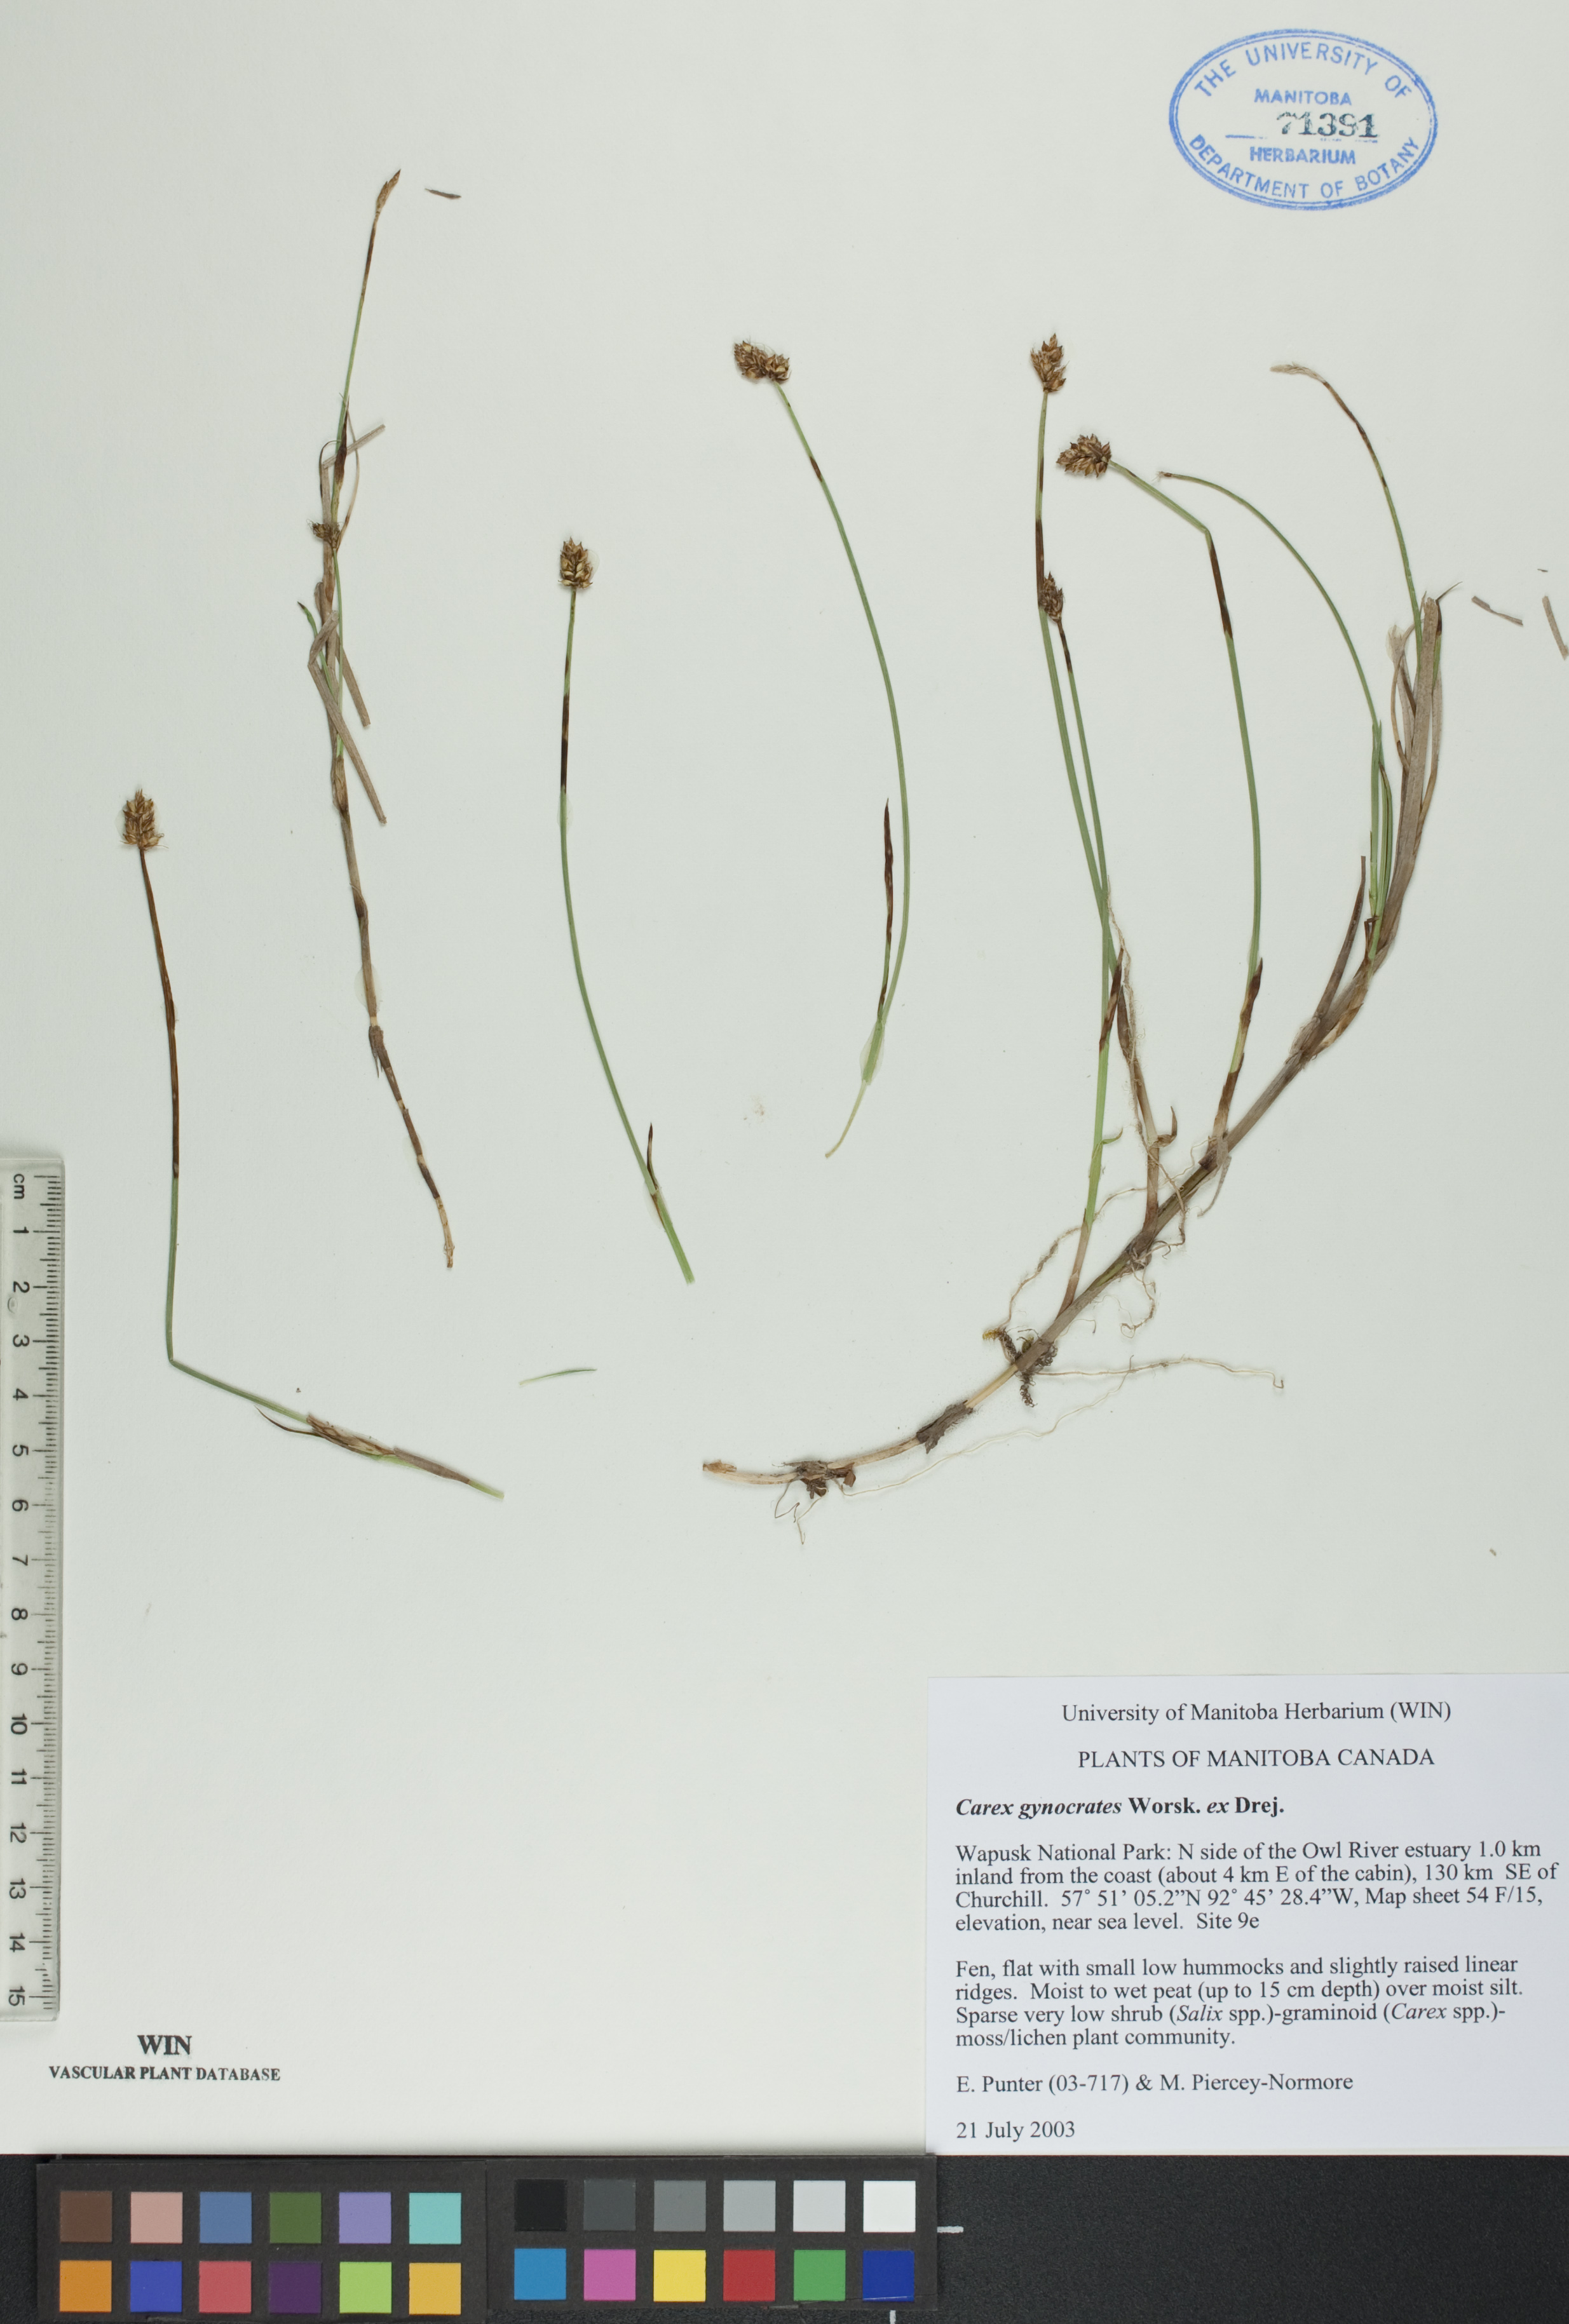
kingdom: Plantae
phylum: Tracheophyta
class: Liliopsida
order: Poales
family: Cyperaceae
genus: Carex
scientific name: Carex nardina
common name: Nard sedge
